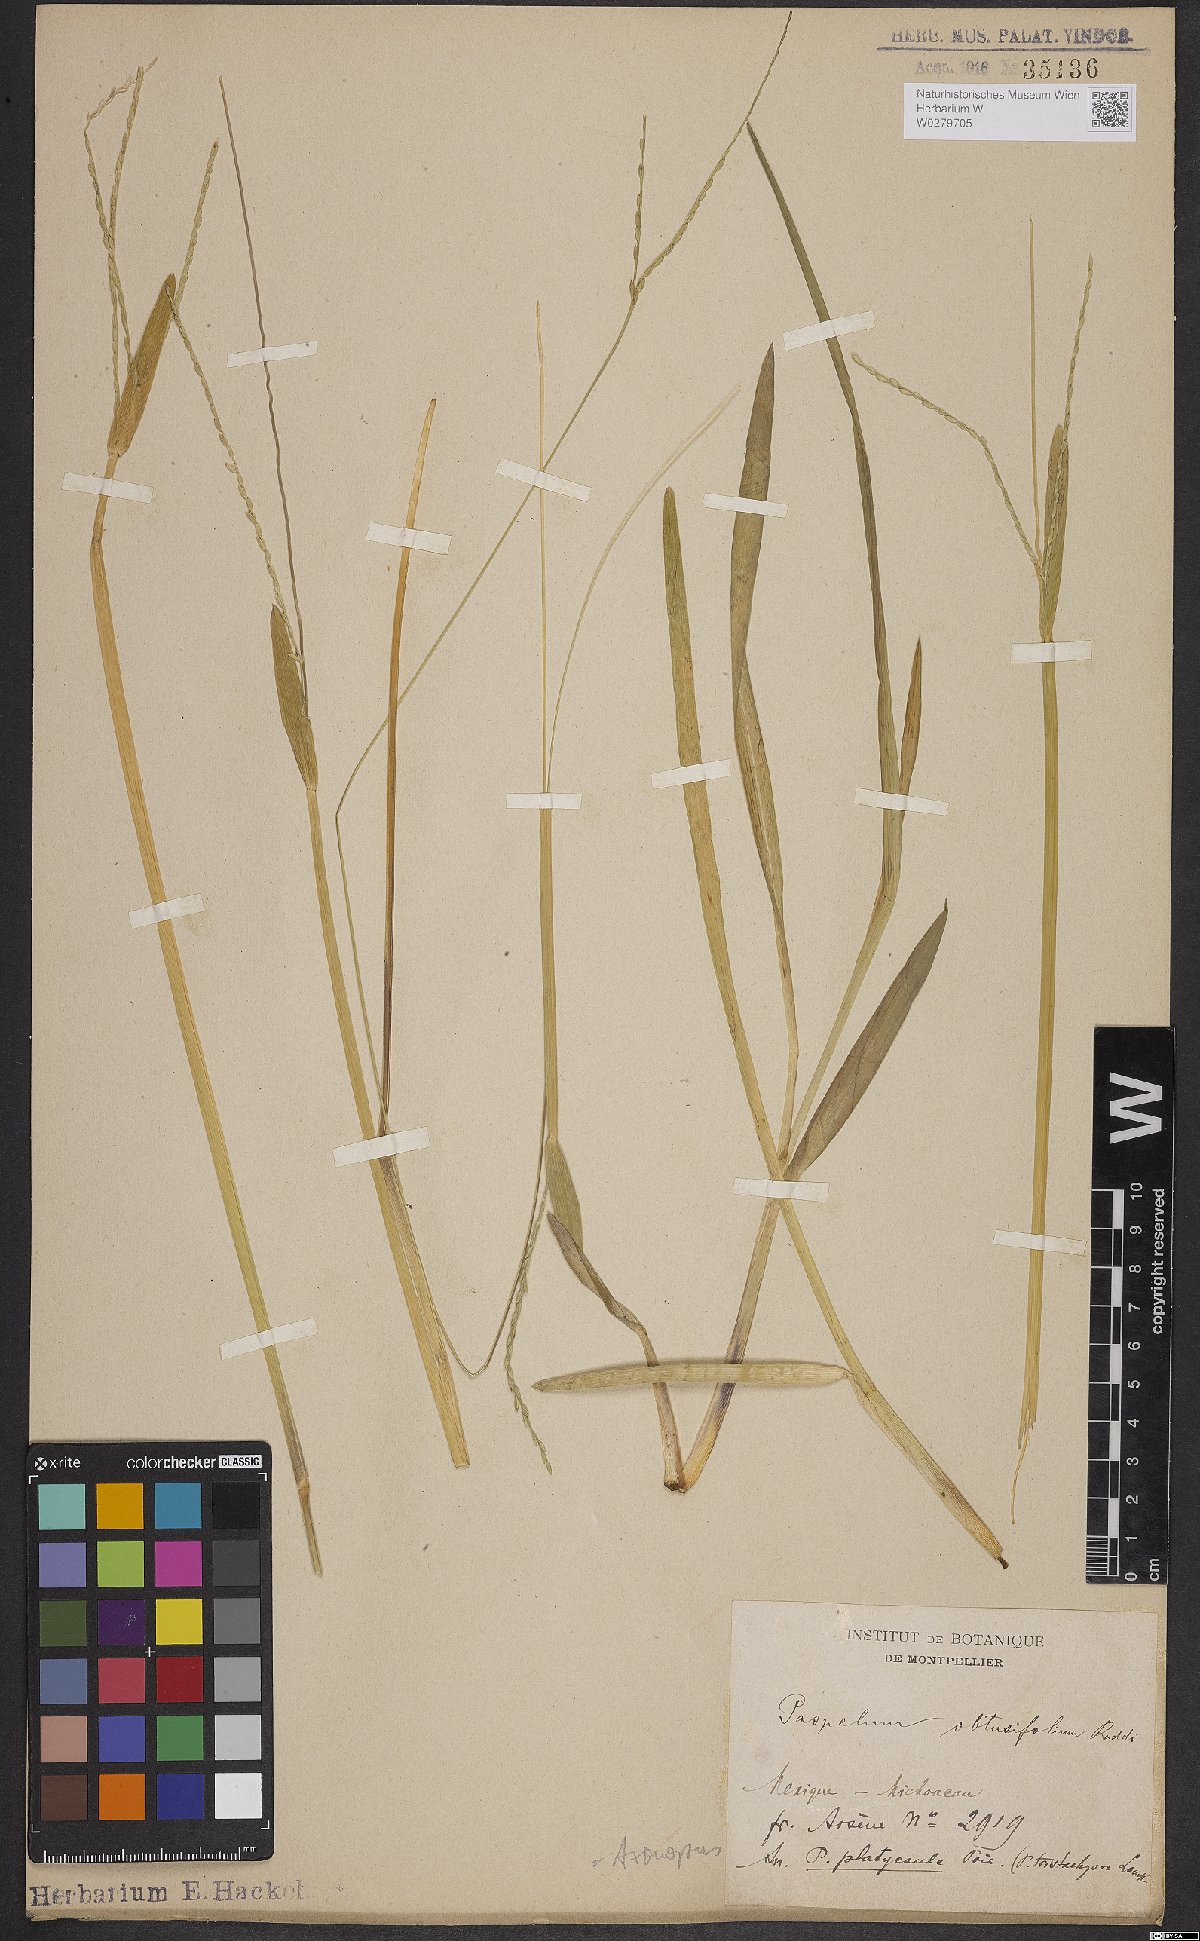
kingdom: Plantae
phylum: Tracheophyta
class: Liliopsida
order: Poales
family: Poaceae
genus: Axonopus
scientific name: Axonopus furcatus
